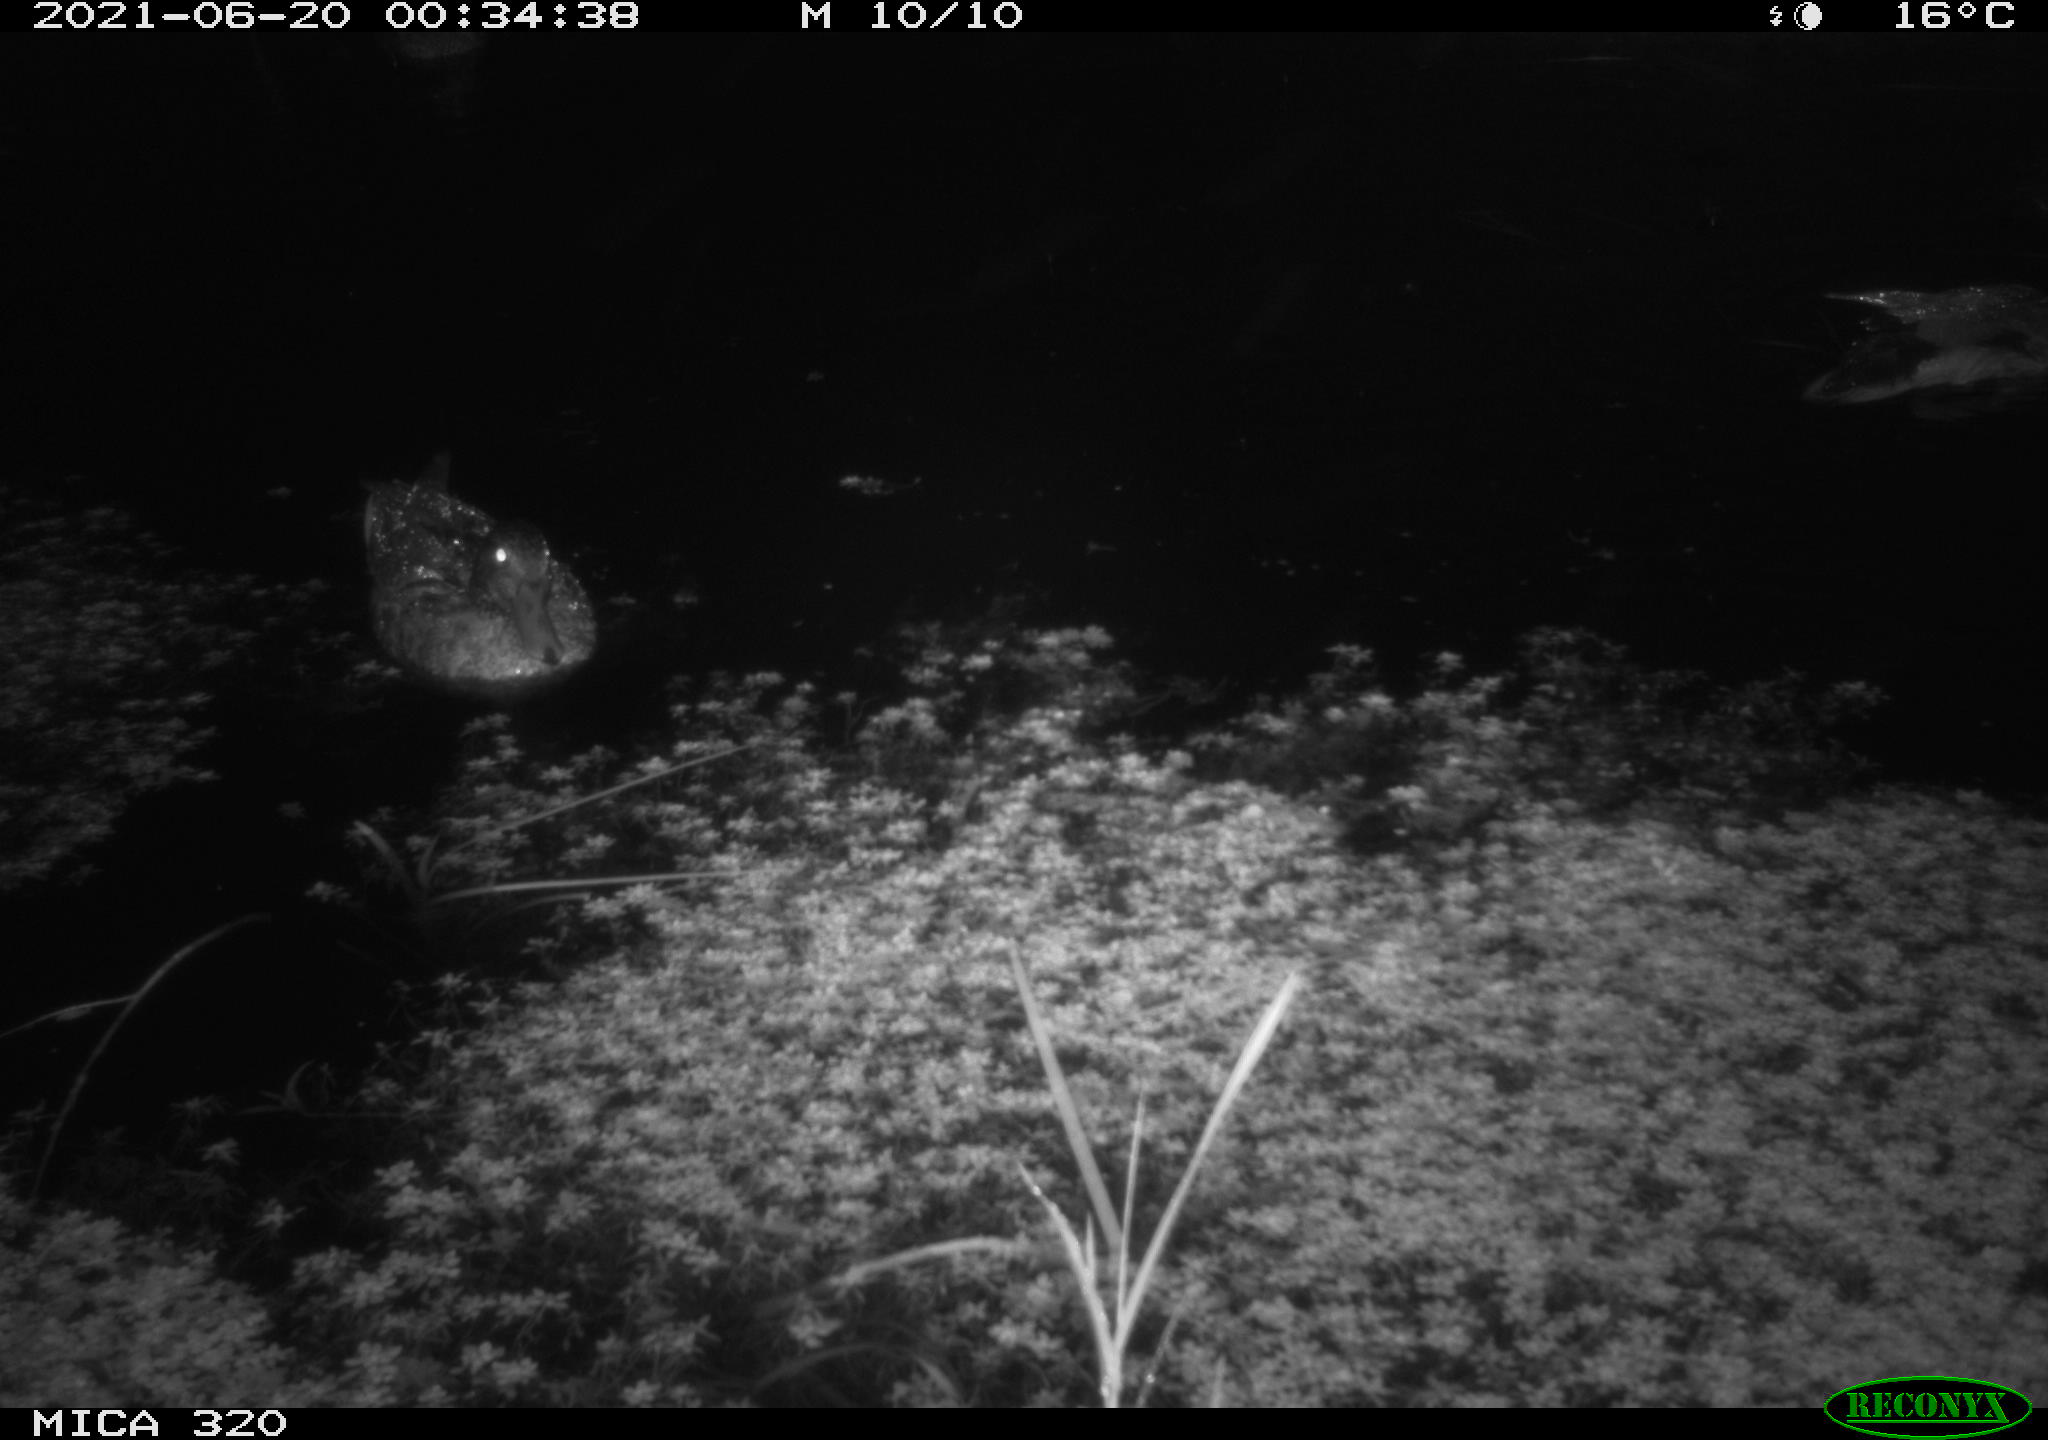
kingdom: Animalia
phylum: Chordata
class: Aves
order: Anseriformes
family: Anatidae
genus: Anas
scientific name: Anas platyrhynchos
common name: Mallard
